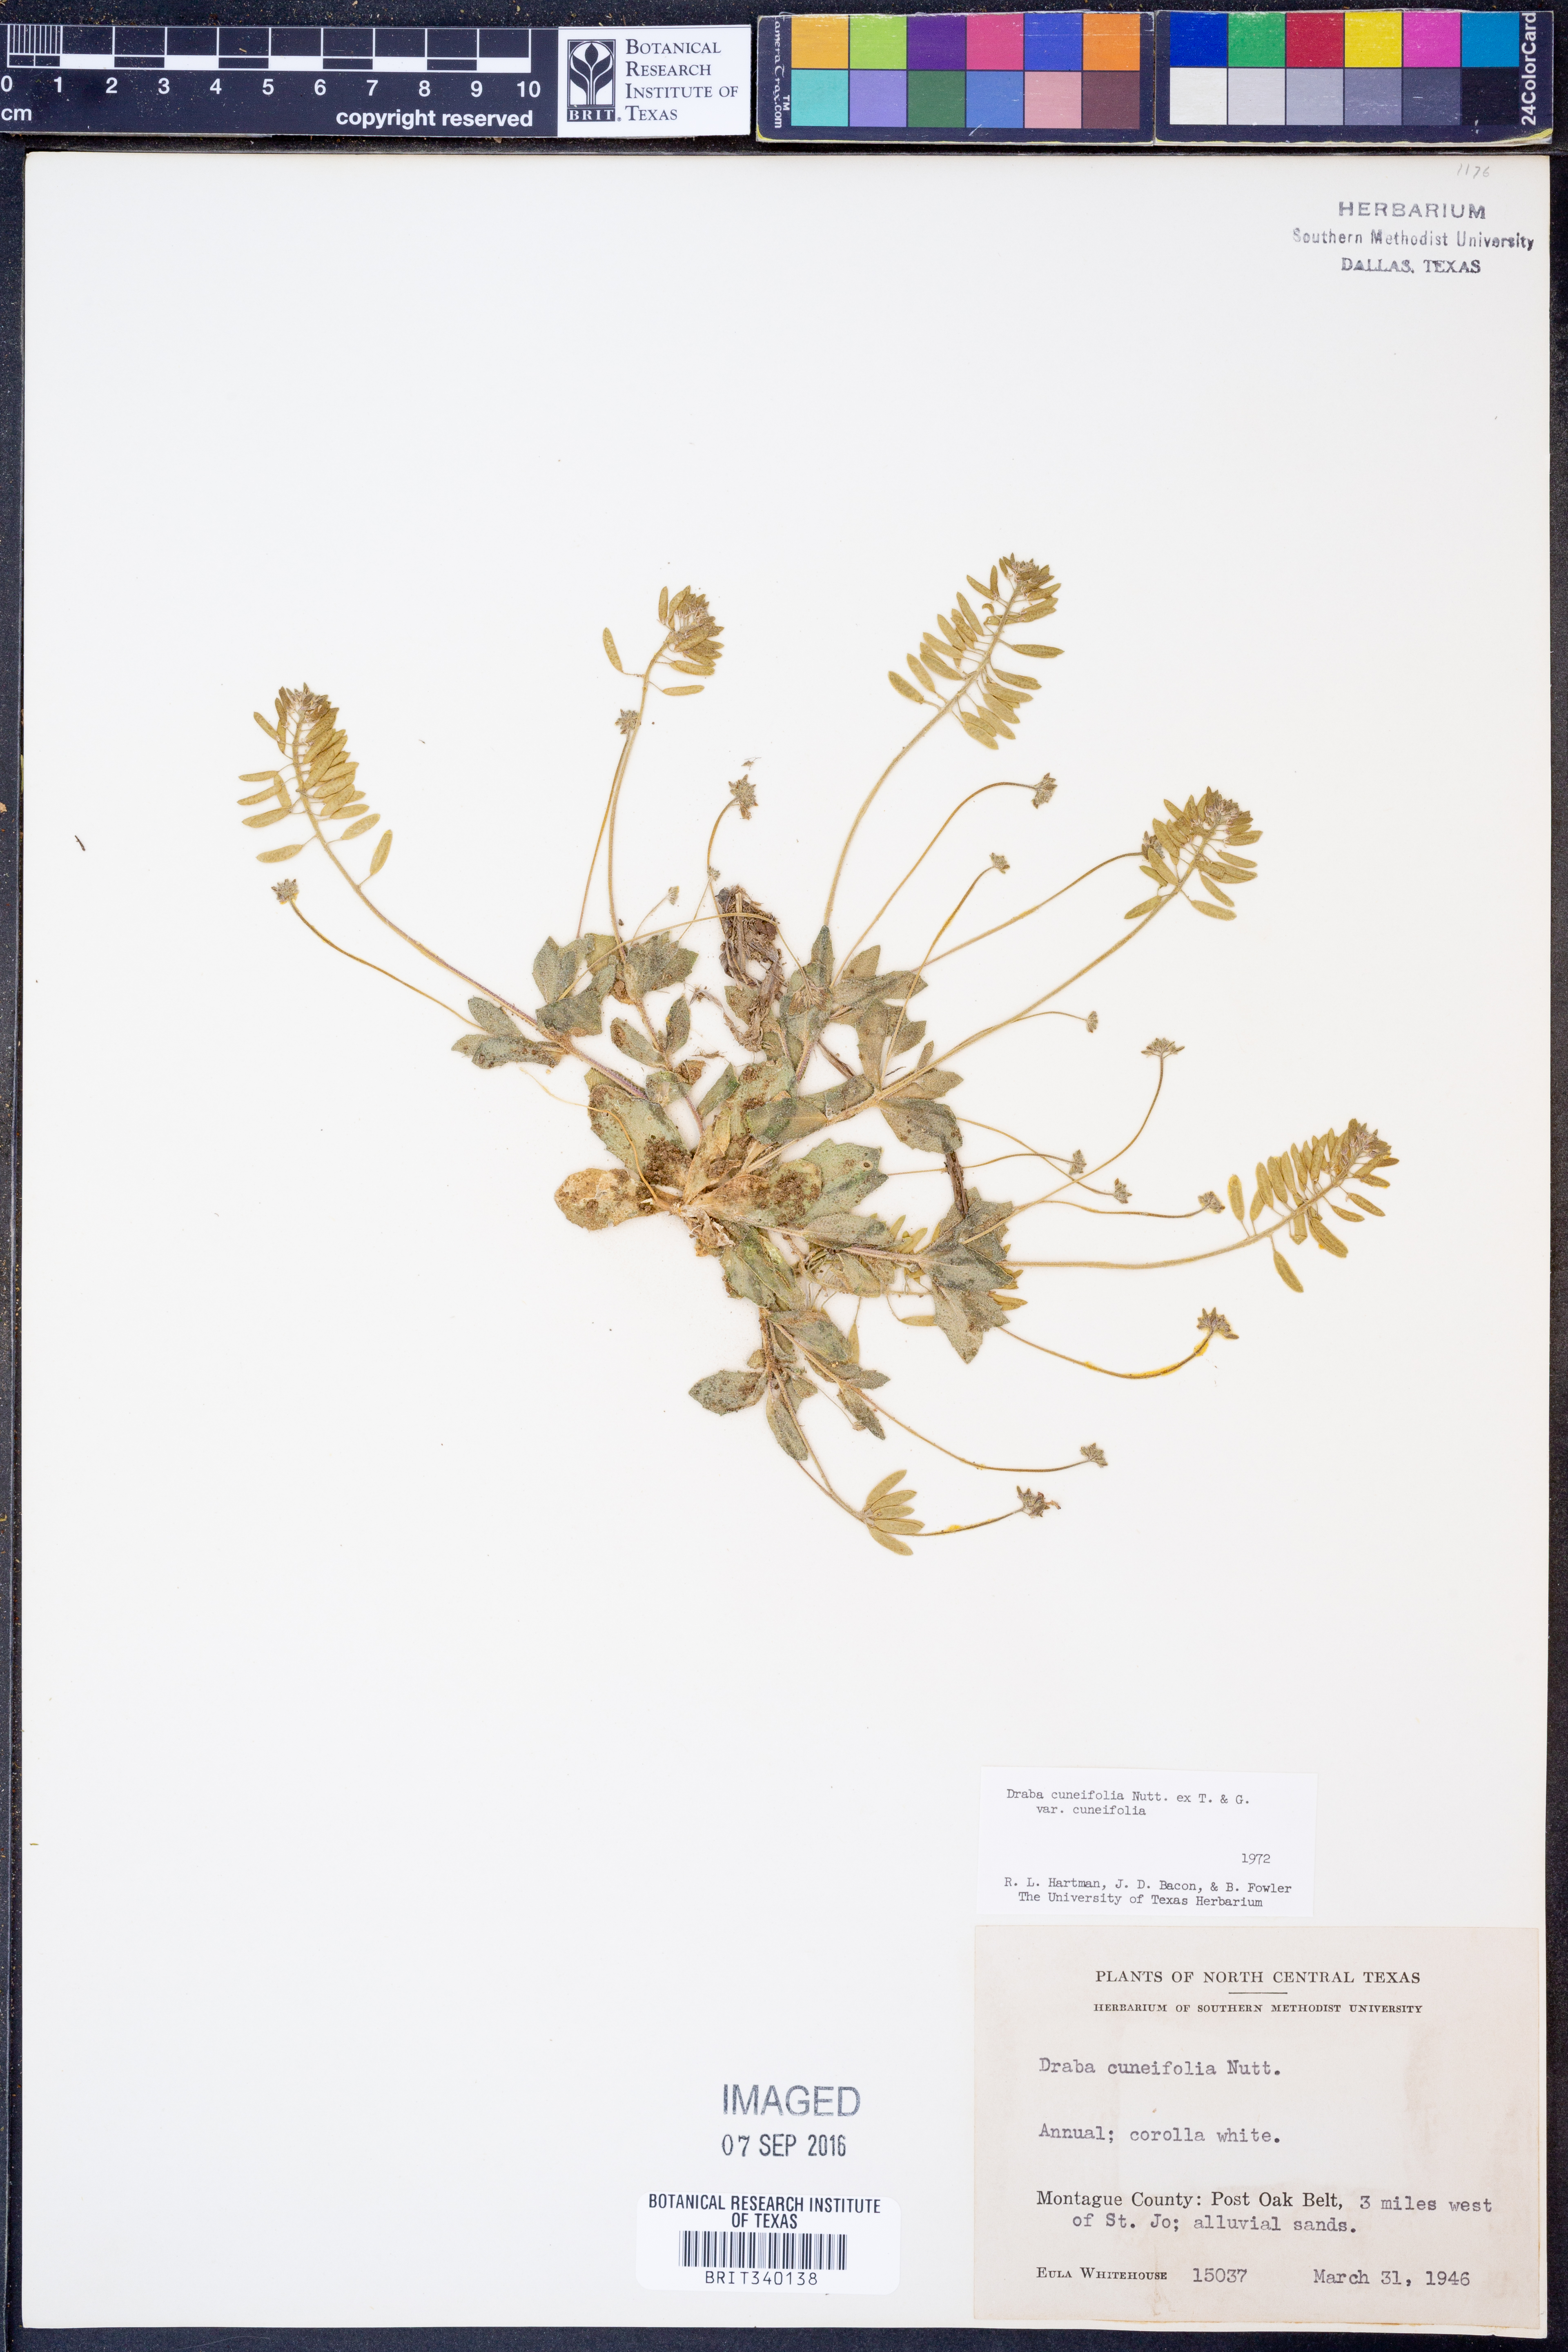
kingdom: Plantae
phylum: Tracheophyta
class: Magnoliopsida
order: Brassicales
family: Brassicaceae
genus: Tomostima
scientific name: Tomostima cuneifolia
